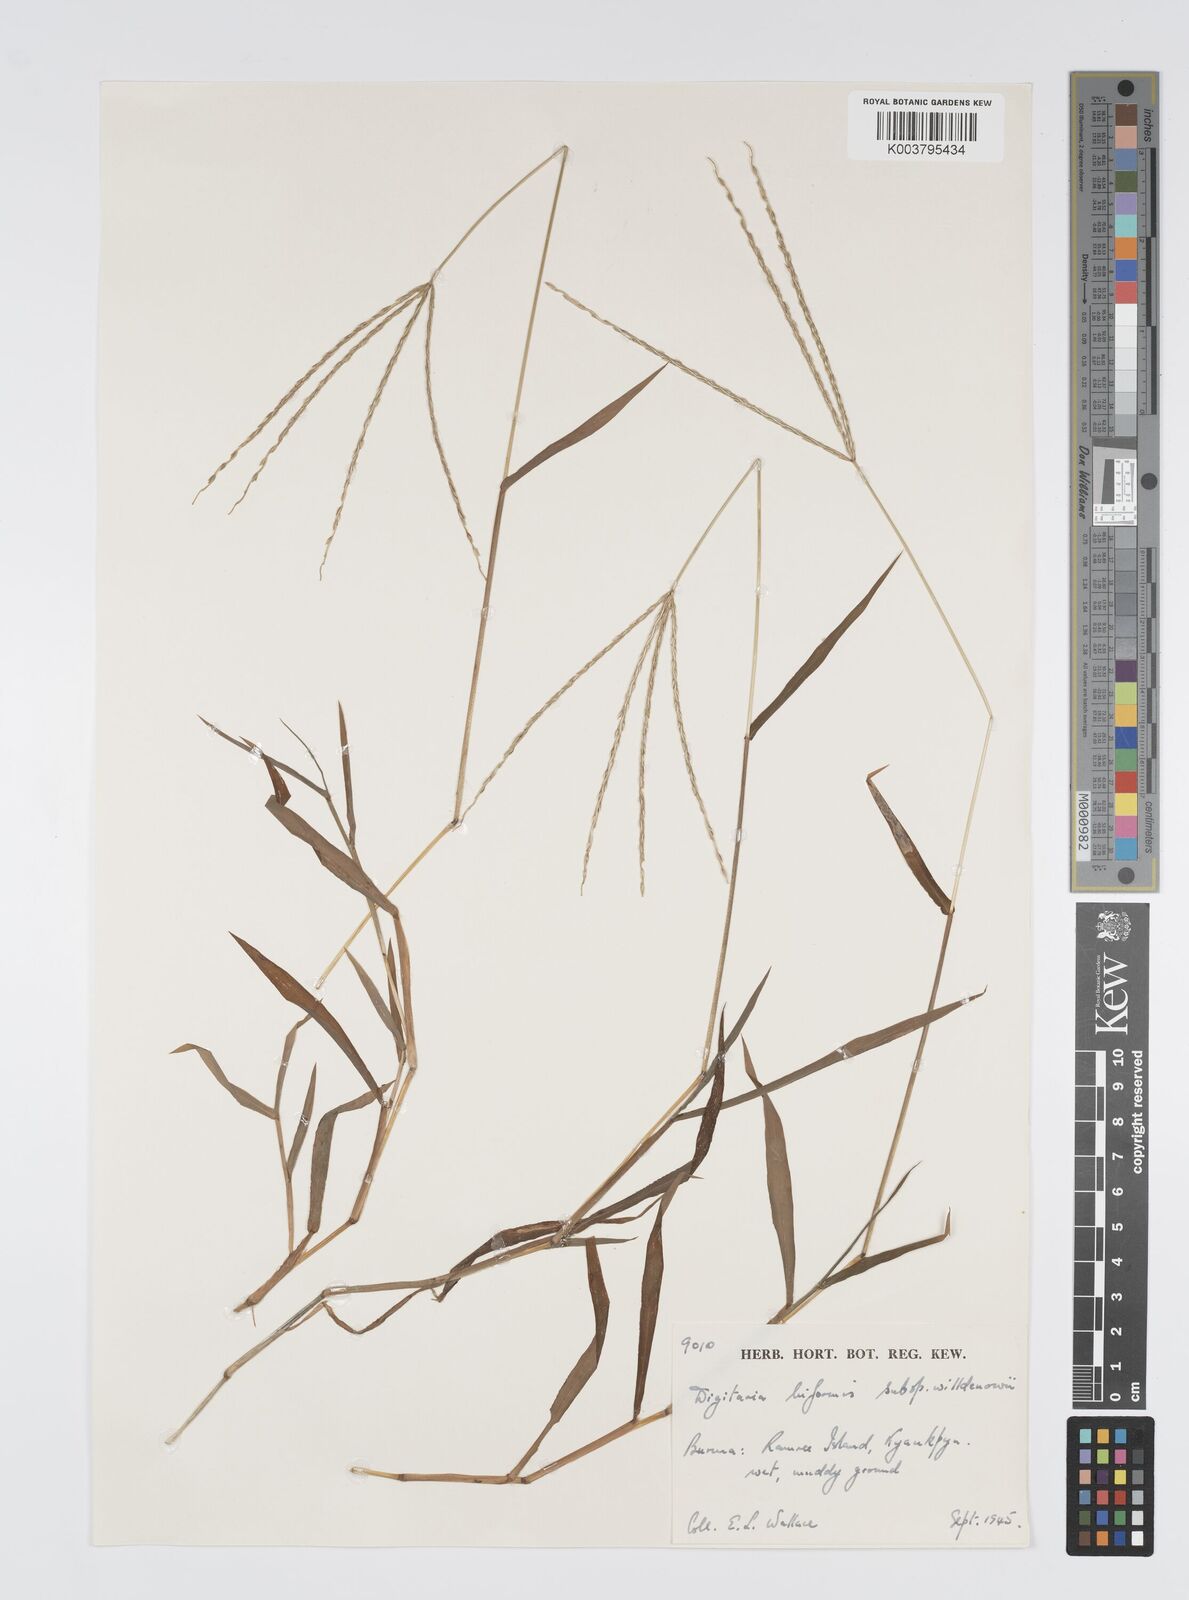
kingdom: Plantae
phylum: Tracheophyta
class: Liliopsida
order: Poales
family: Poaceae
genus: Digitaria
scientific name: Digitaria bicornis
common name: Asian crabgrass
